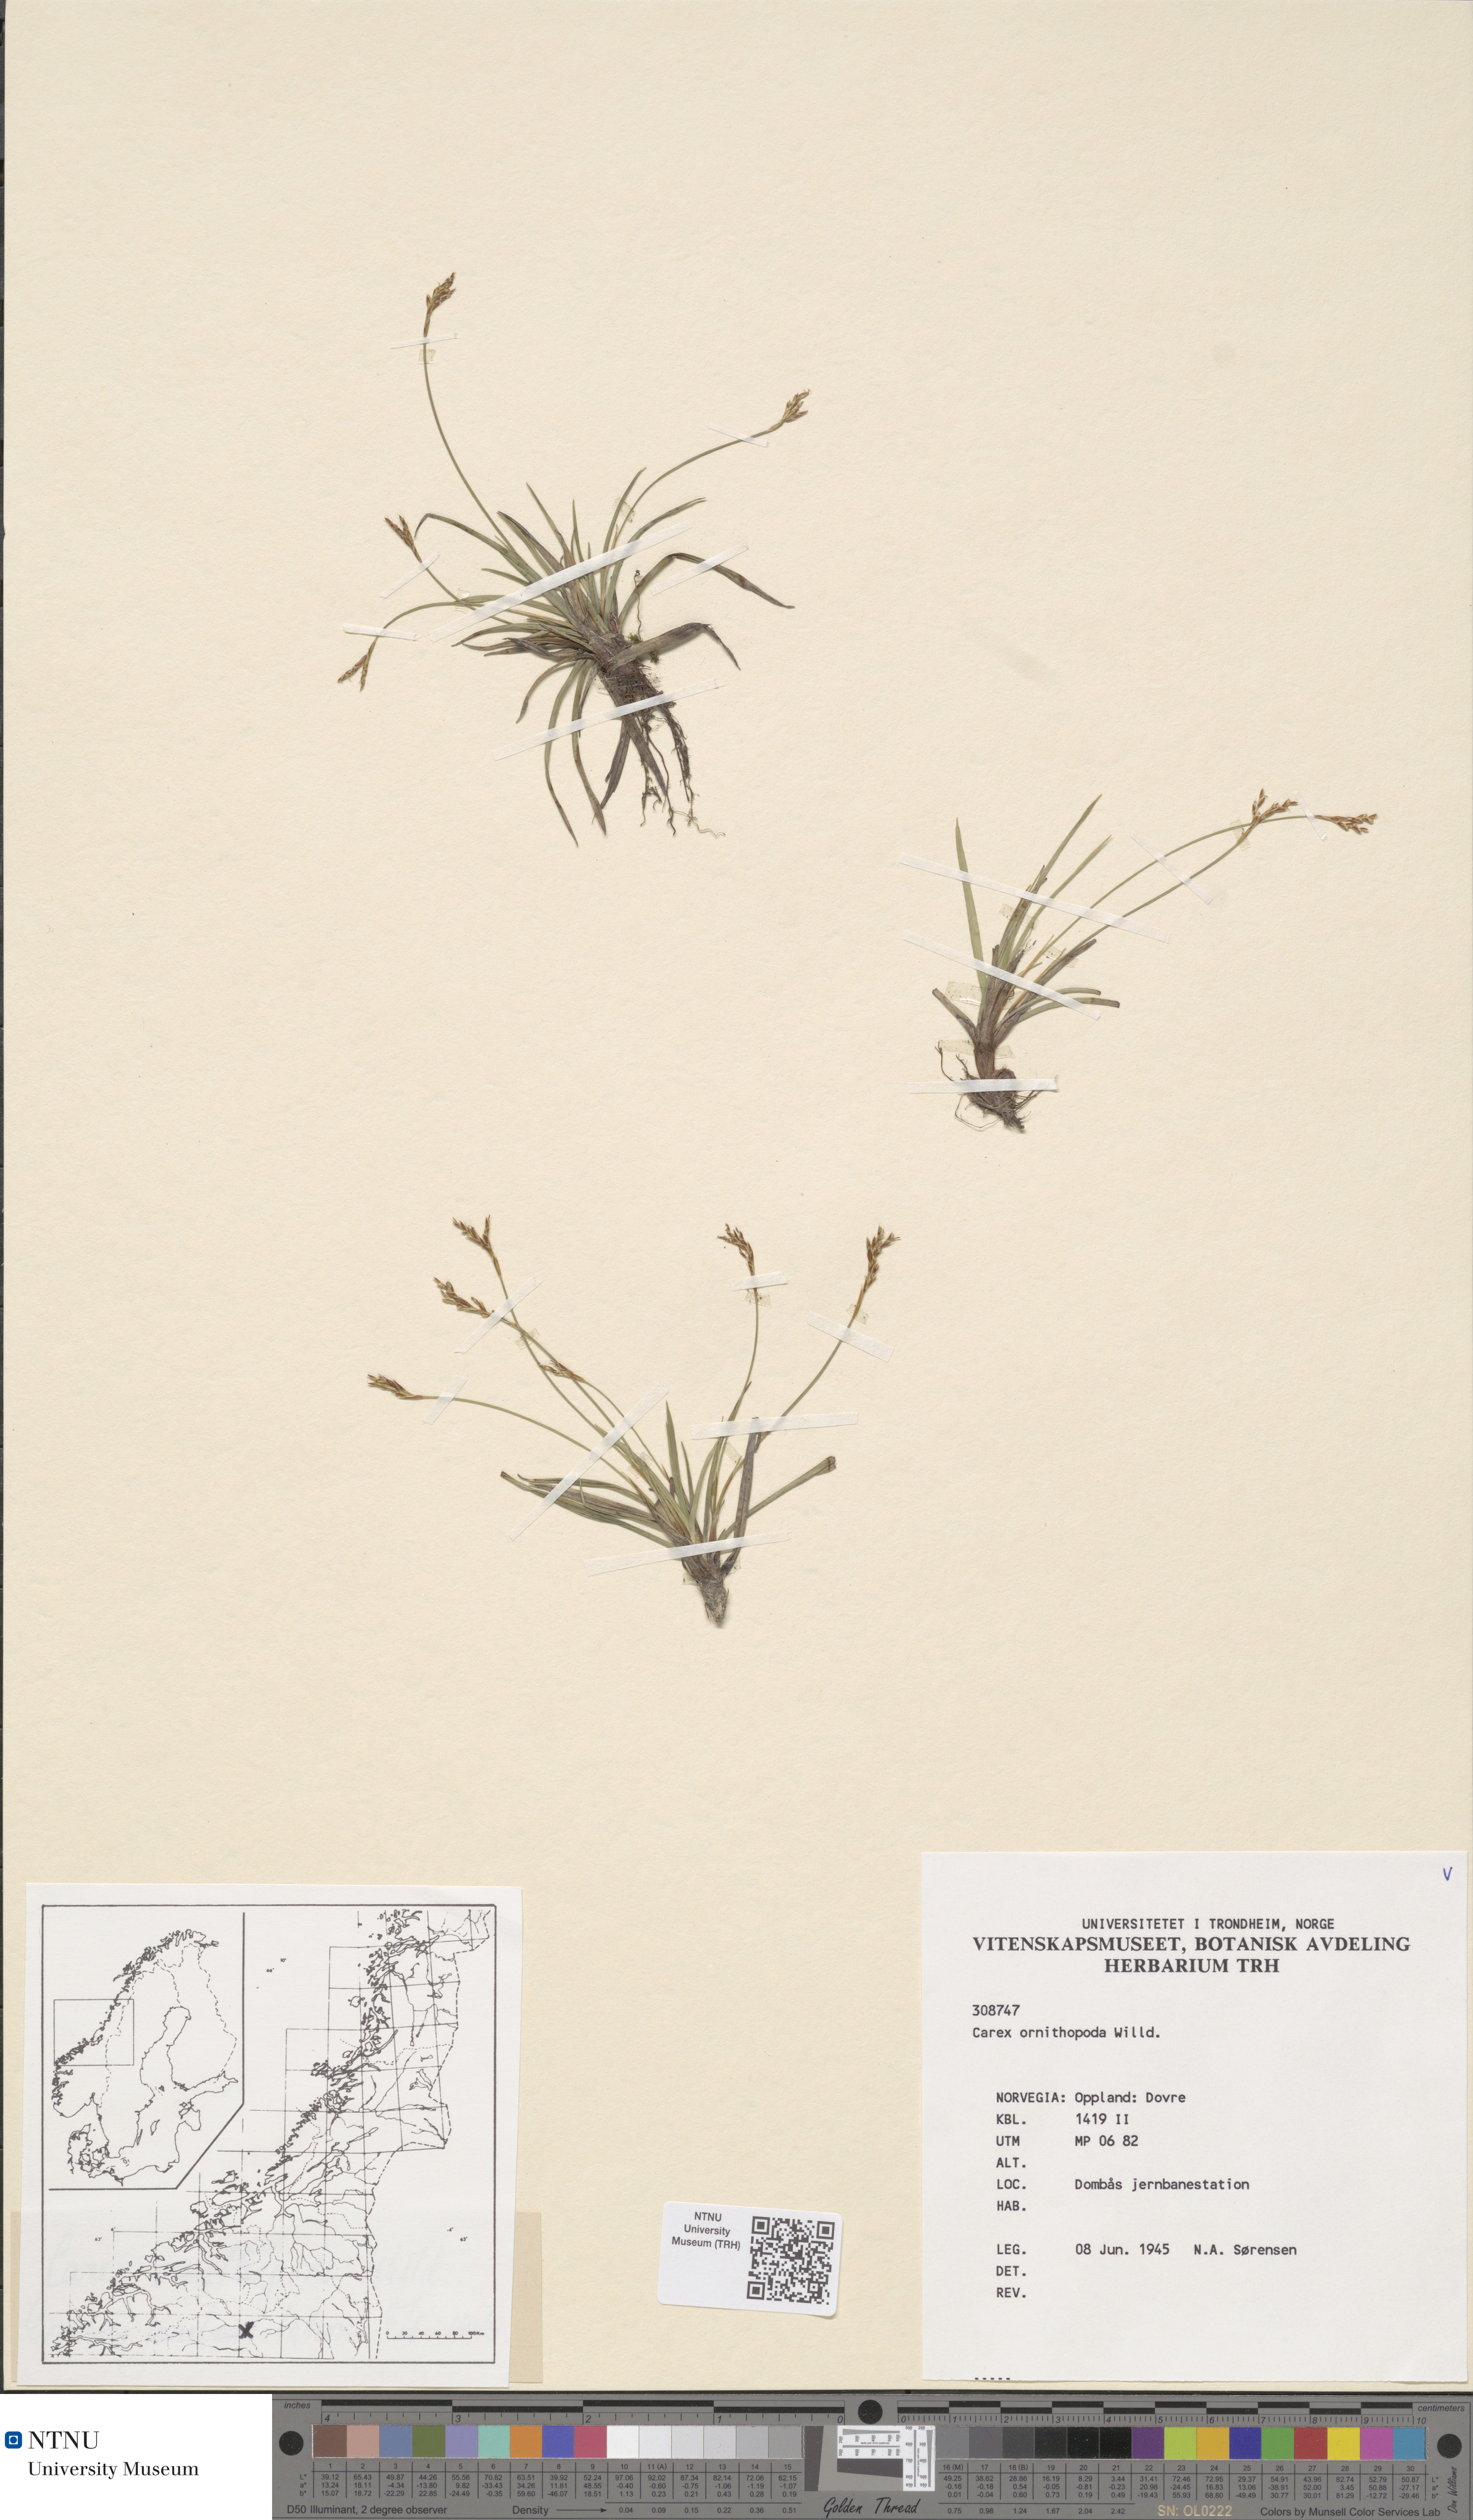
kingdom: Plantae
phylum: Tracheophyta
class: Liliopsida
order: Poales
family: Cyperaceae
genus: Carex
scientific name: Carex ornithopoda
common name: Bird's-foot sedge
